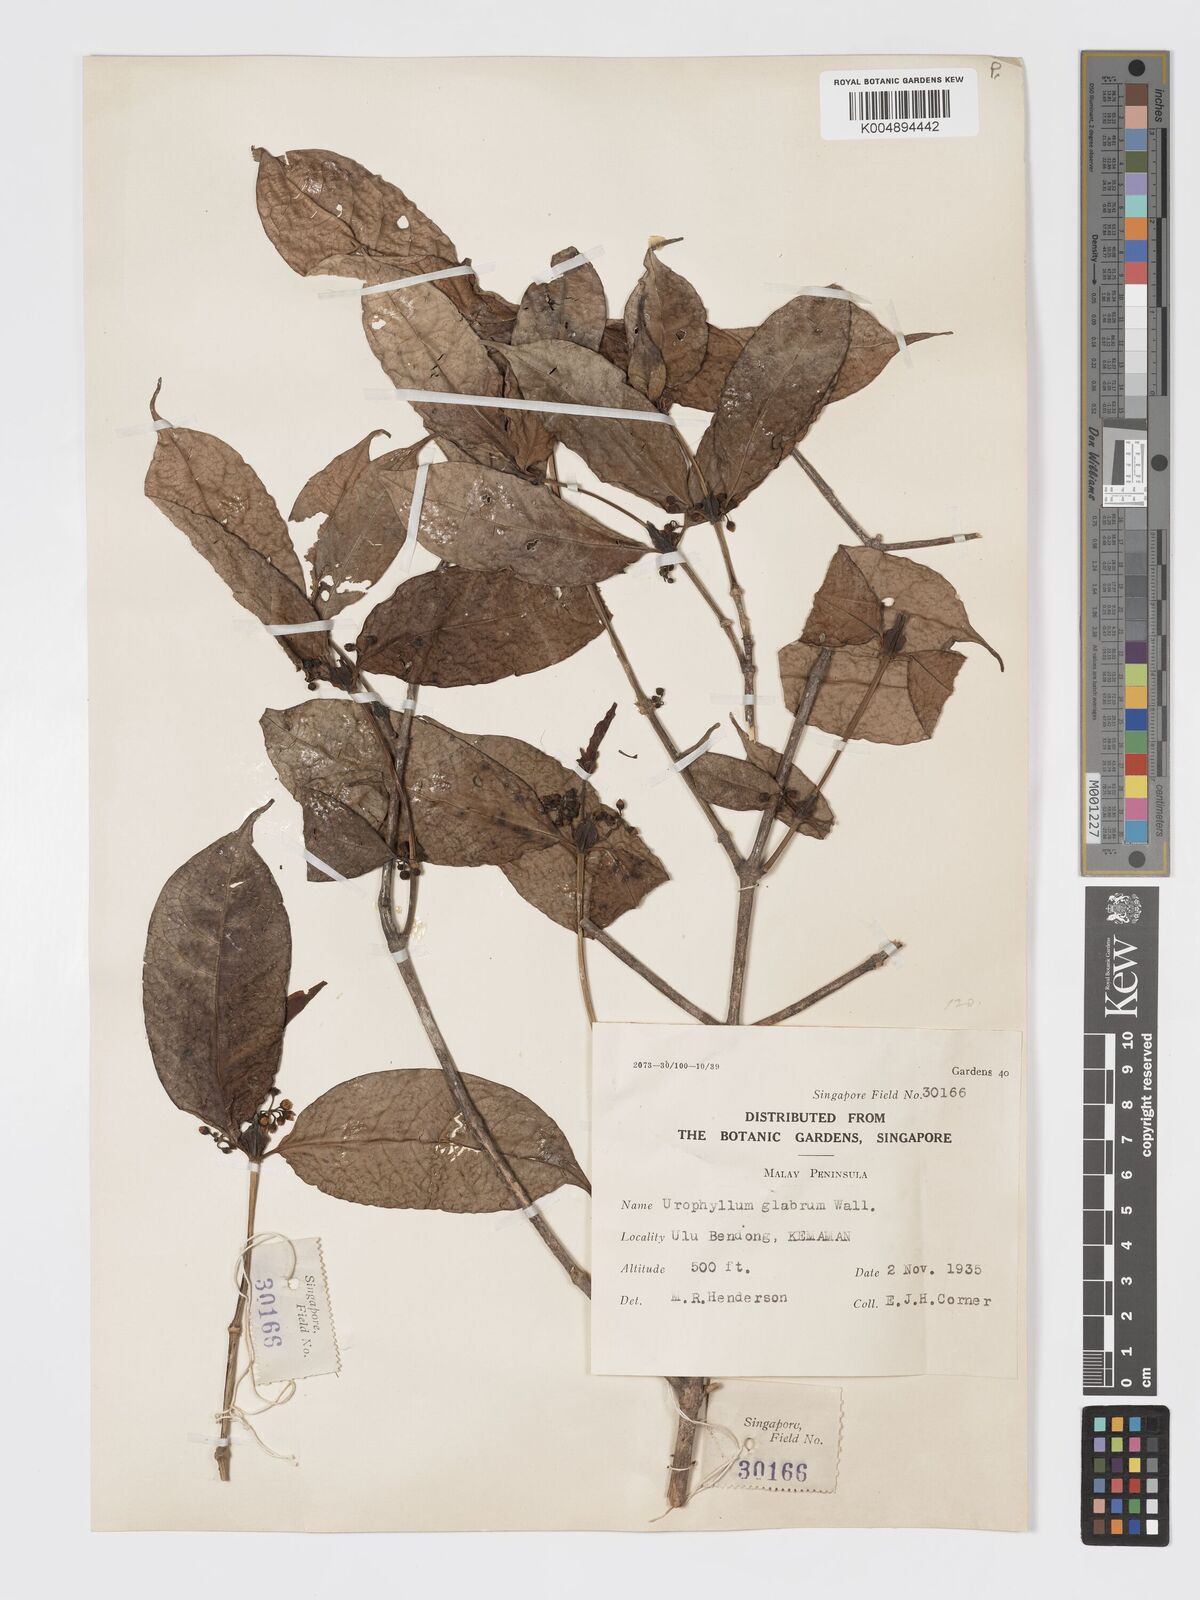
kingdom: Plantae
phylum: Tracheophyta
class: Magnoliopsida
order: Gentianales
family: Rubiaceae
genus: Urophyllum
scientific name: Urophyllum griffithianum
